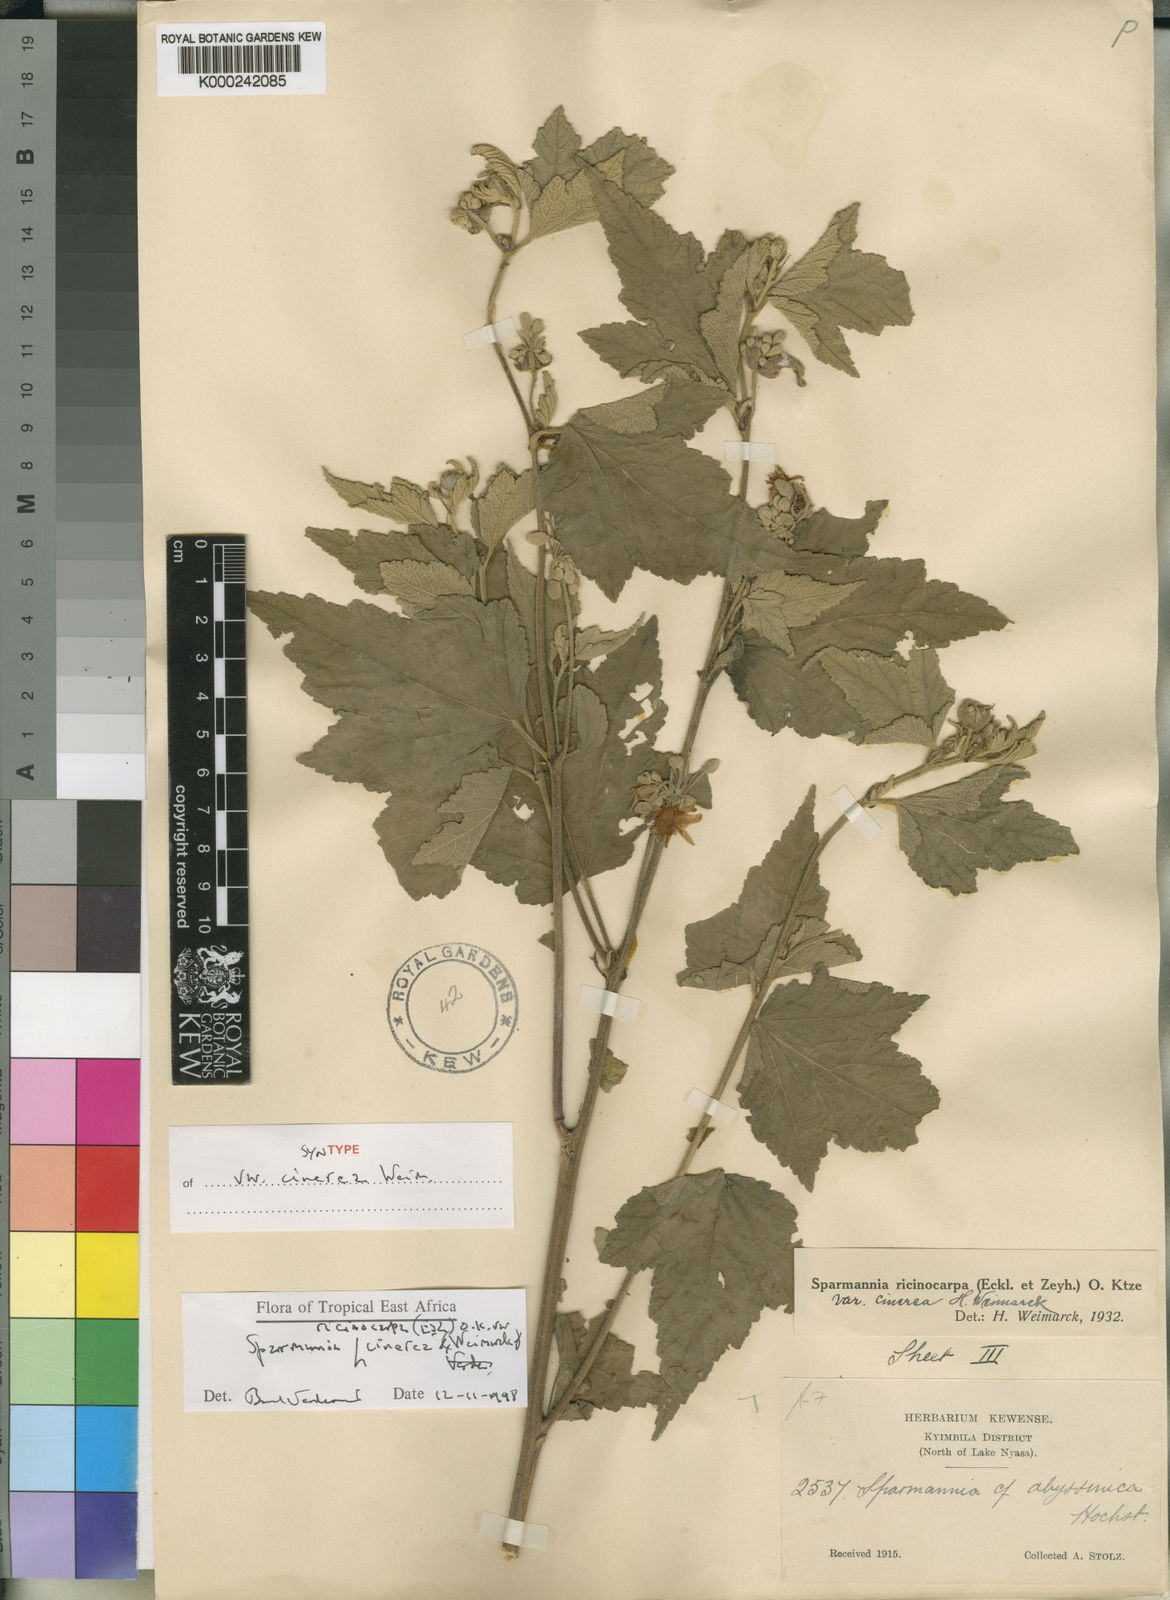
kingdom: Plantae
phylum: Tracheophyta
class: Magnoliopsida
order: Malvales
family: Malvaceae
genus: Sparrmannia
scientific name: Sparrmannia ricinocarpa
